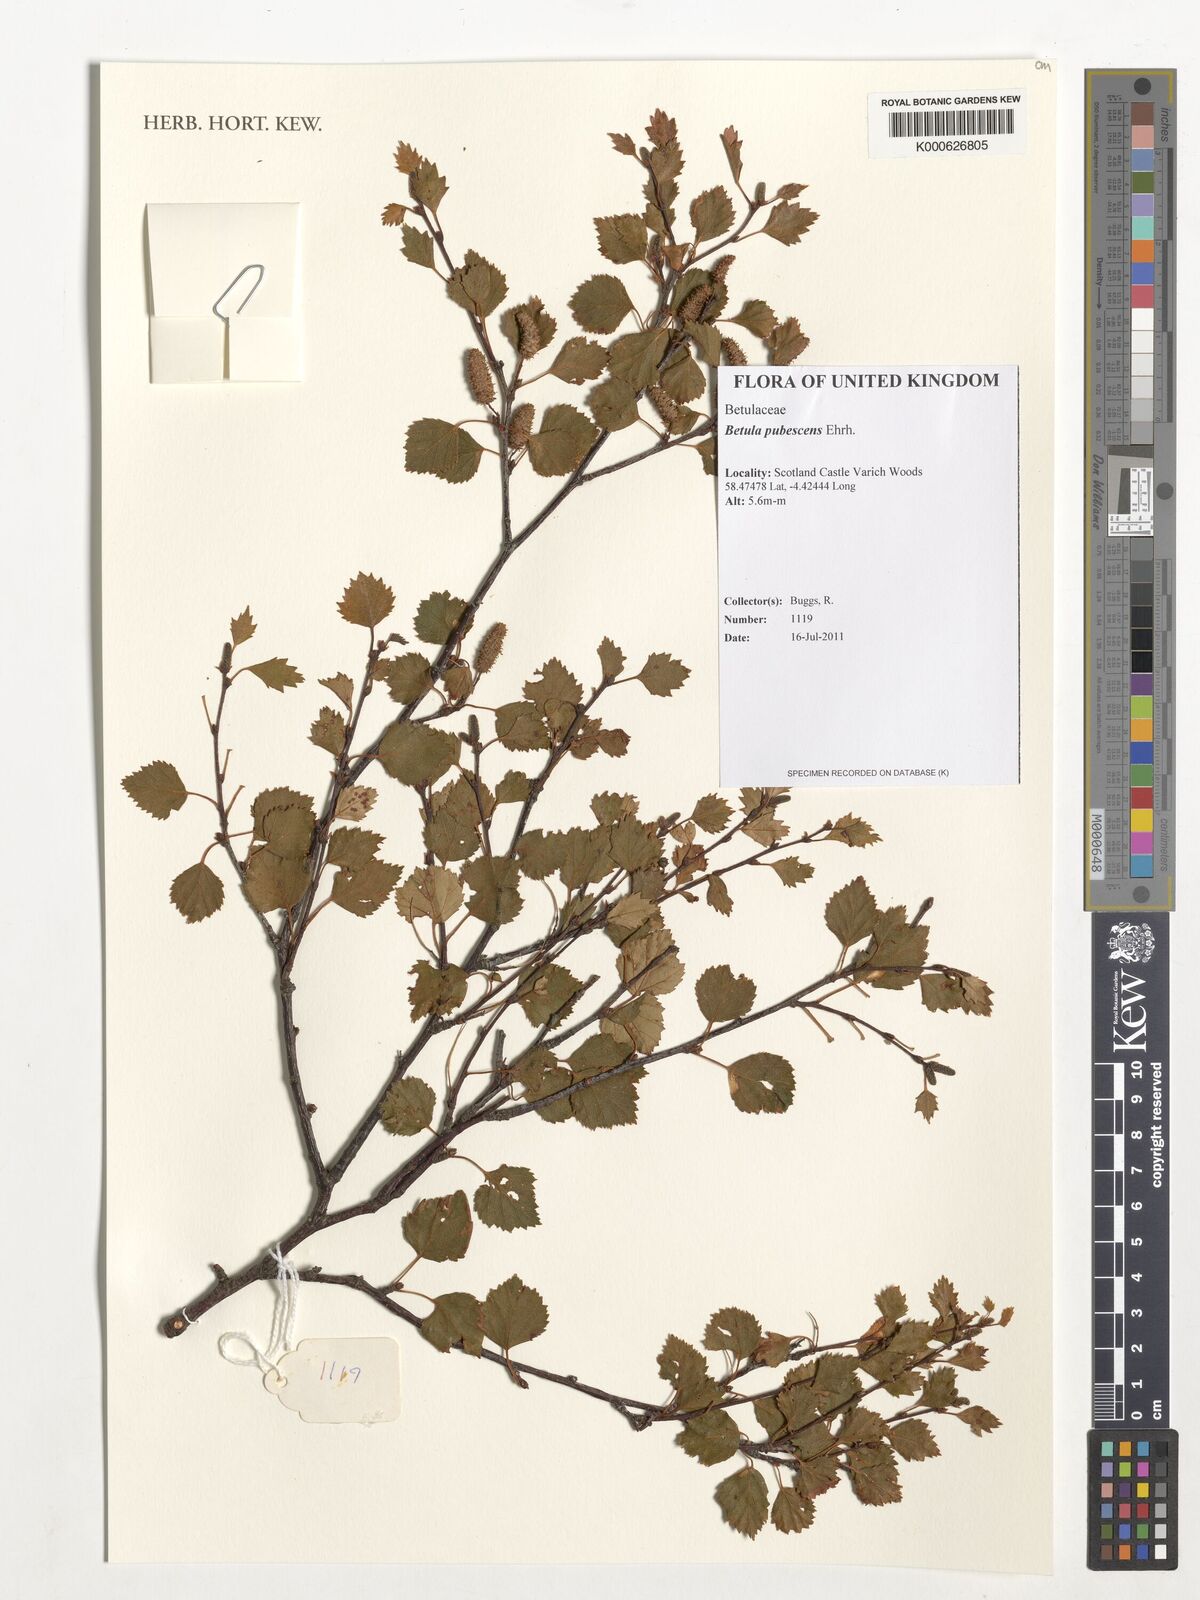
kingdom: Plantae
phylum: Tracheophyta
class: Magnoliopsida
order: Fagales
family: Betulaceae
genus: Betula
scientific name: Betula pubescens
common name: Downy birch
